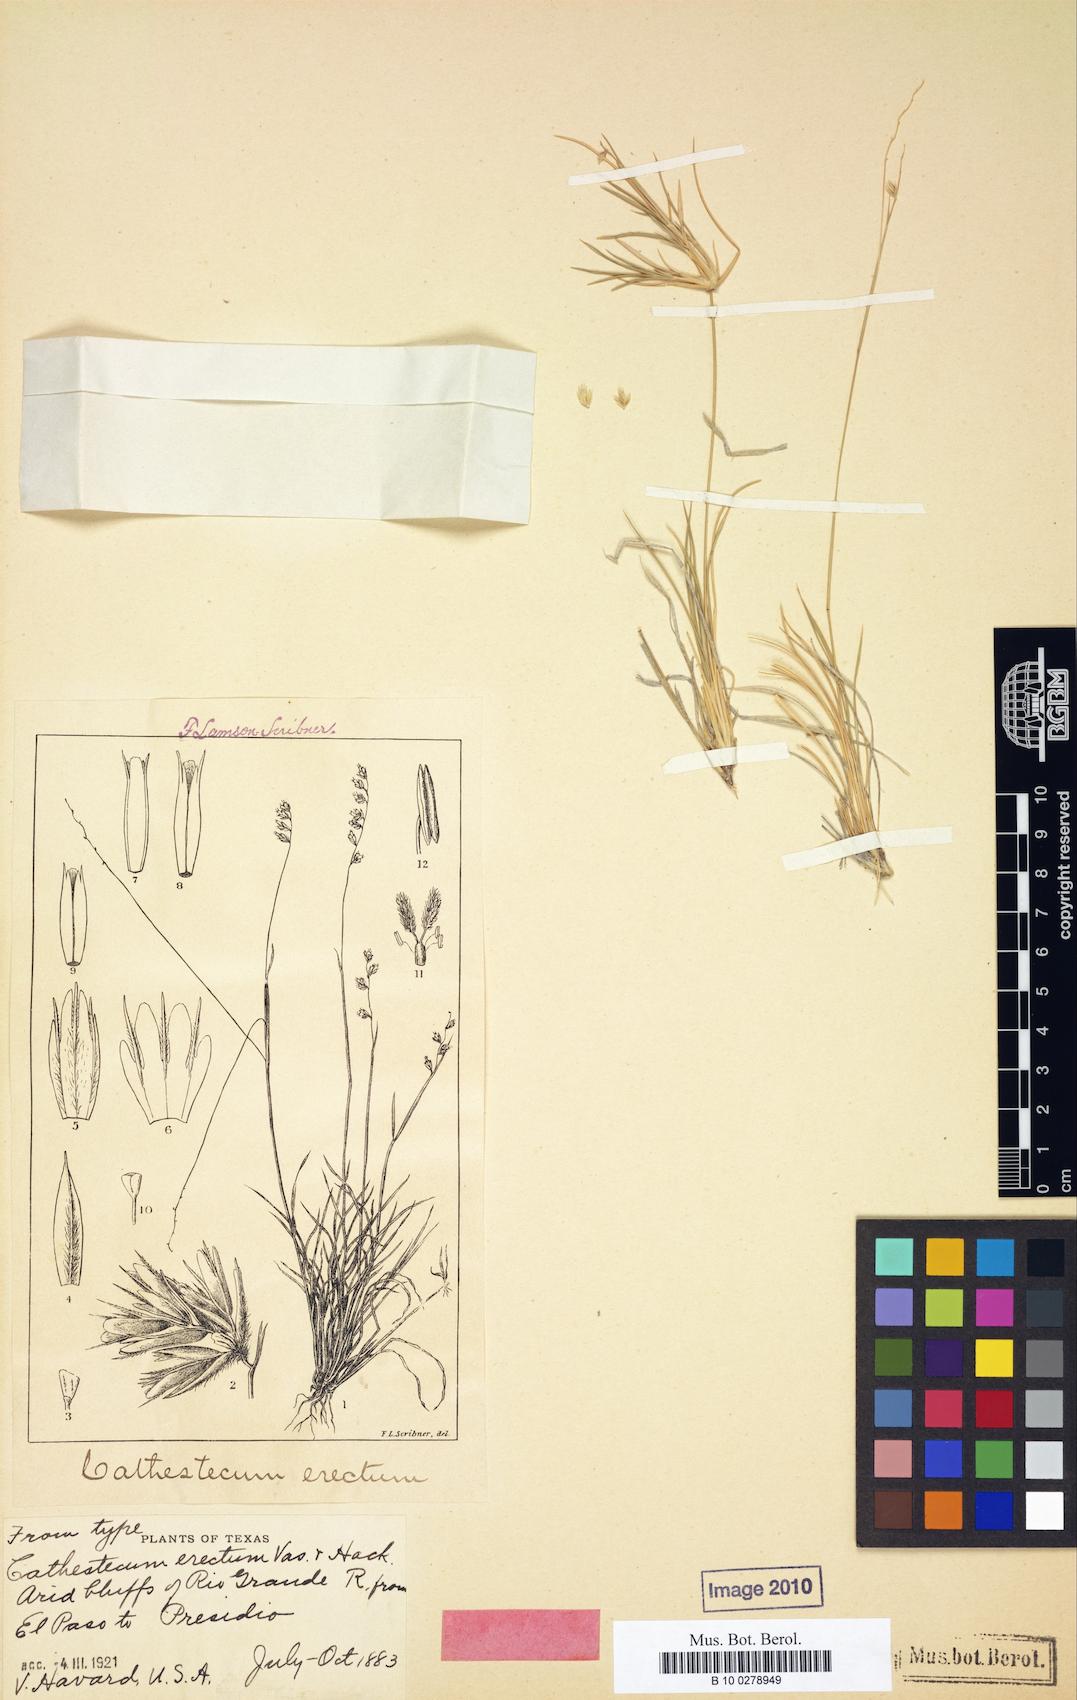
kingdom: Plantae
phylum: Tracheophyta
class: Liliopsida
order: Poales
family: Poaceae
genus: Bouteloua
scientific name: Bouteloua erecta
